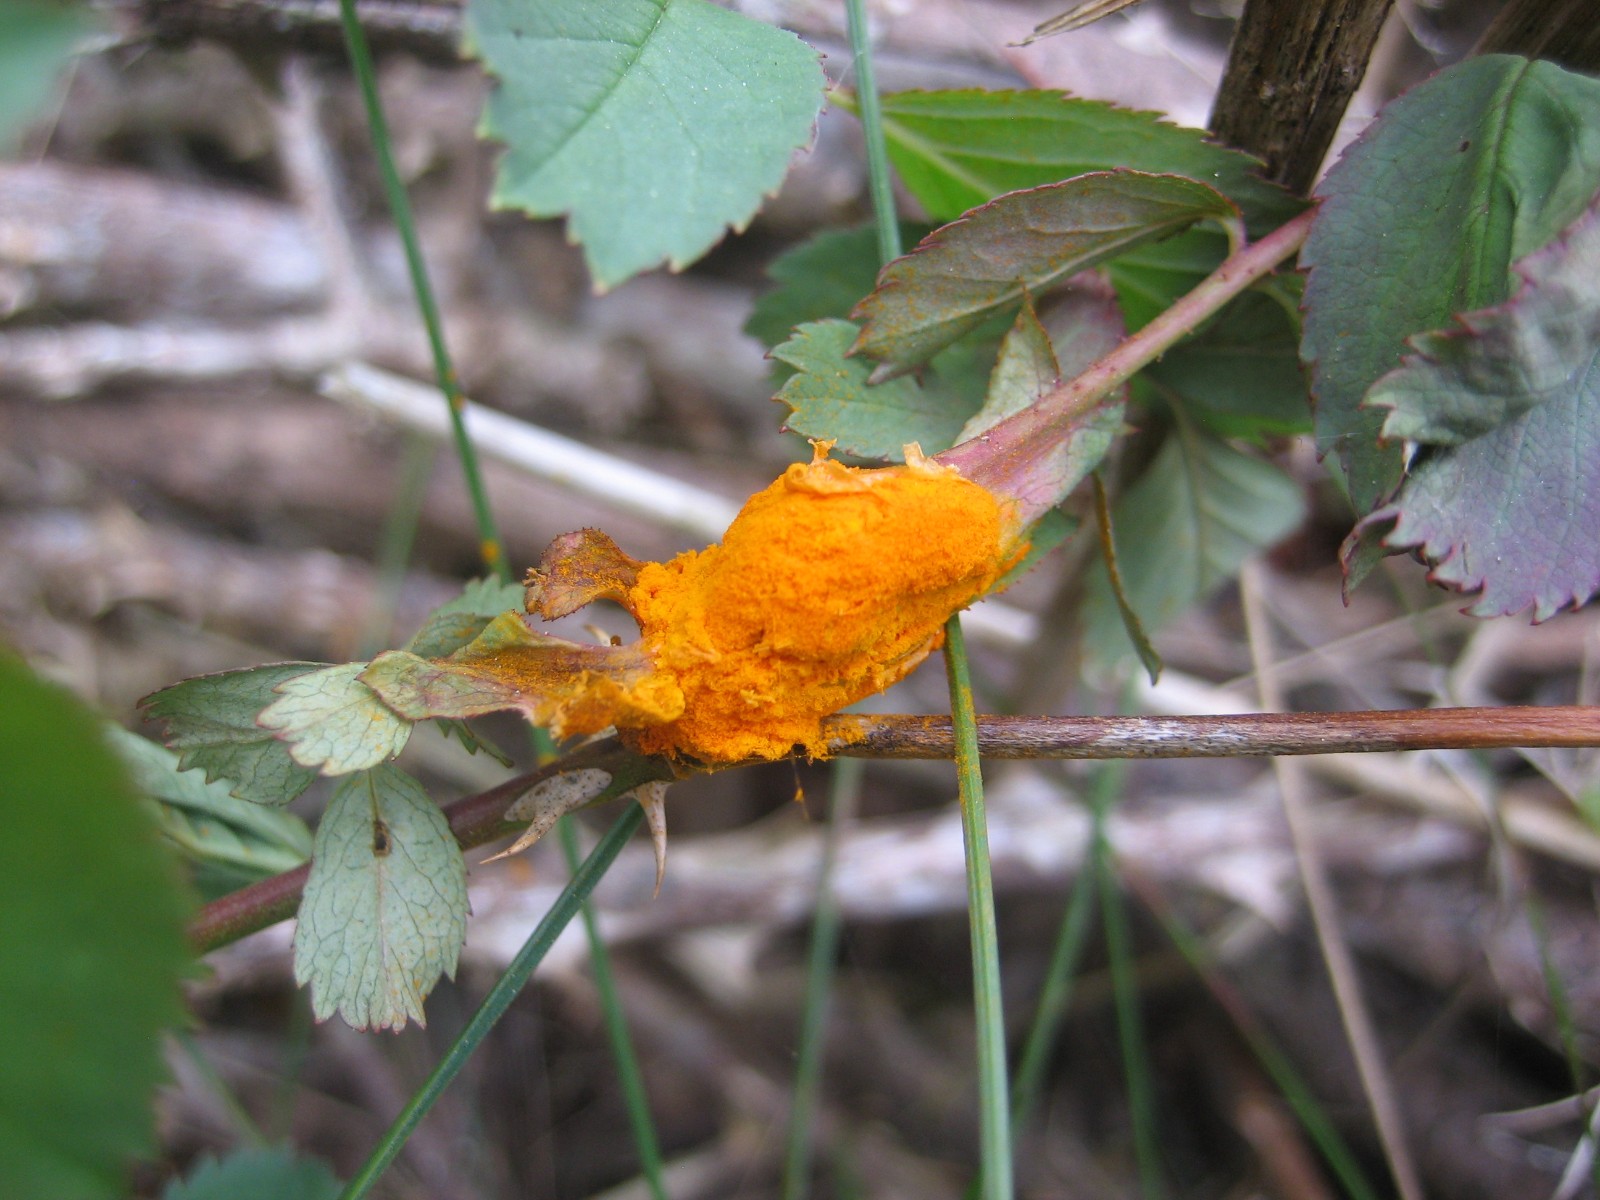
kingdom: Fungi
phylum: Basidiomycota
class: Pucciniomycetes
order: Pucciniales
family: Phragmidiaceae
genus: Phragmidium
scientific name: Phragmidium
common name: flercellerust
